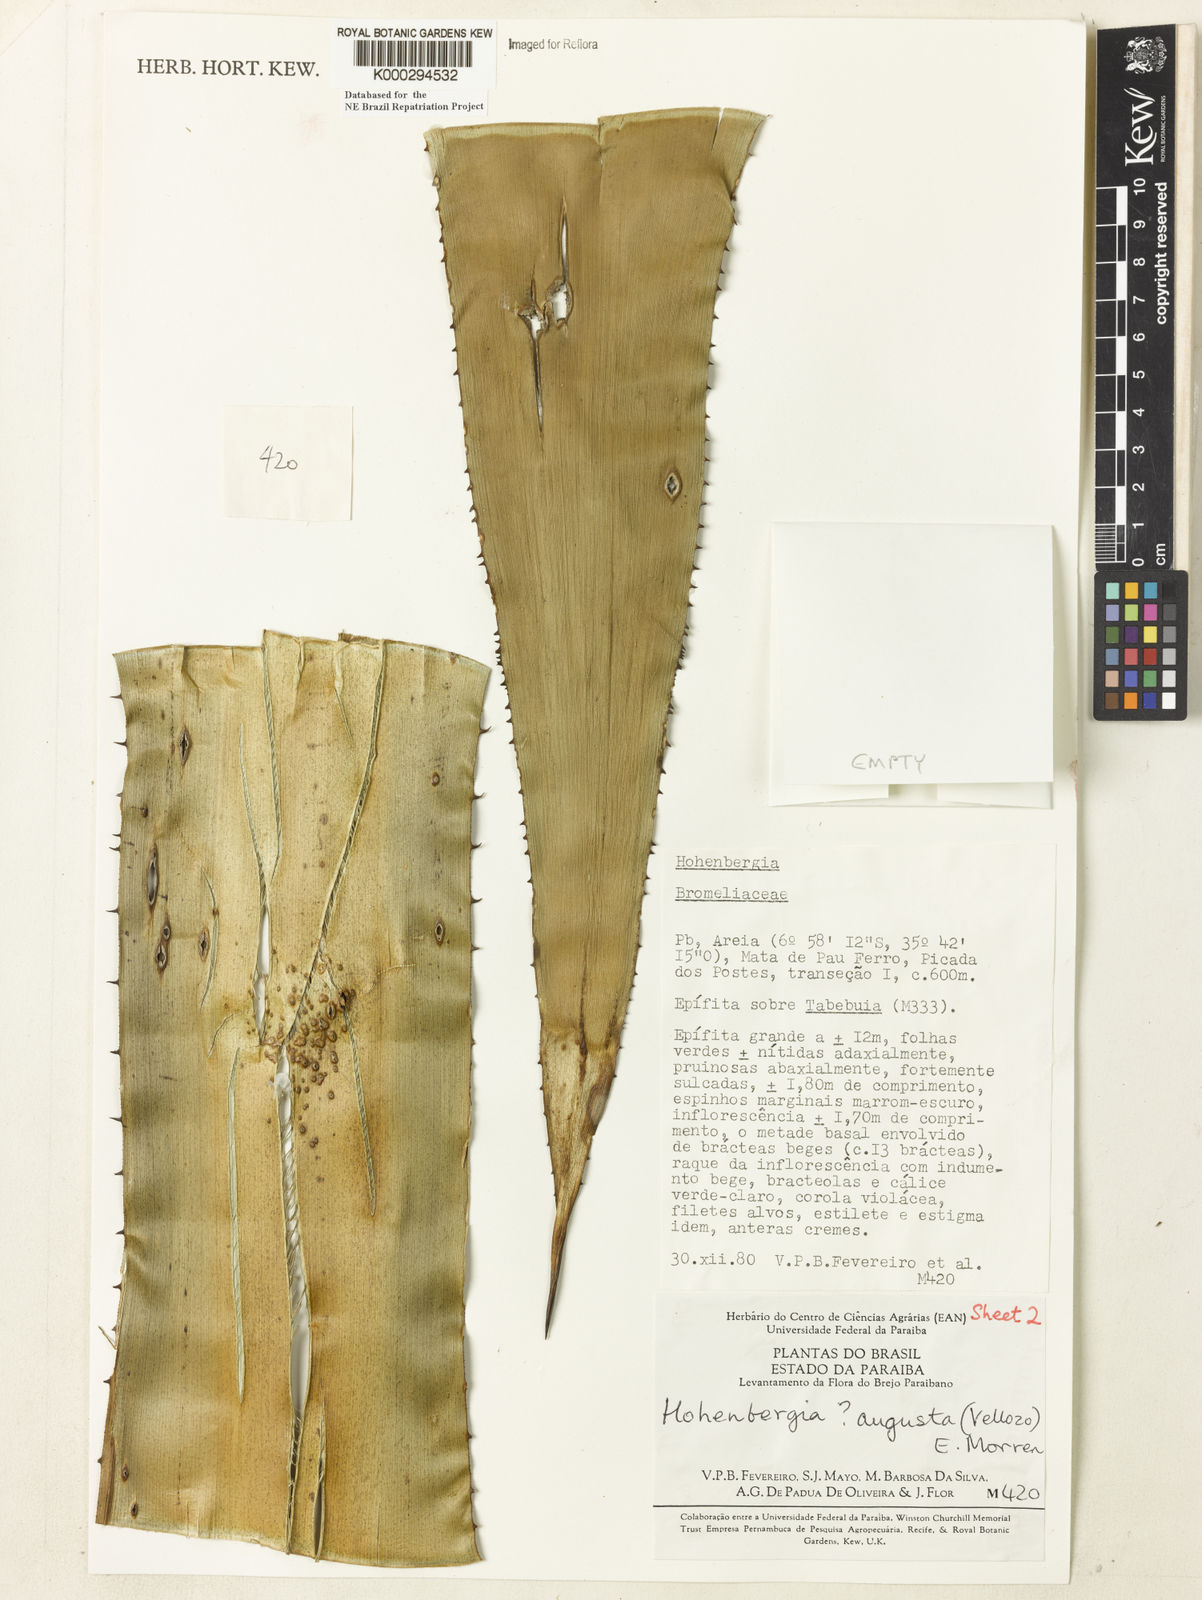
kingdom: Plantae
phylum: Tracheophyta
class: Liliopsida
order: Poales
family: Bromeliaceae
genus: Hohenbergia
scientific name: Hohenbergia augusta
